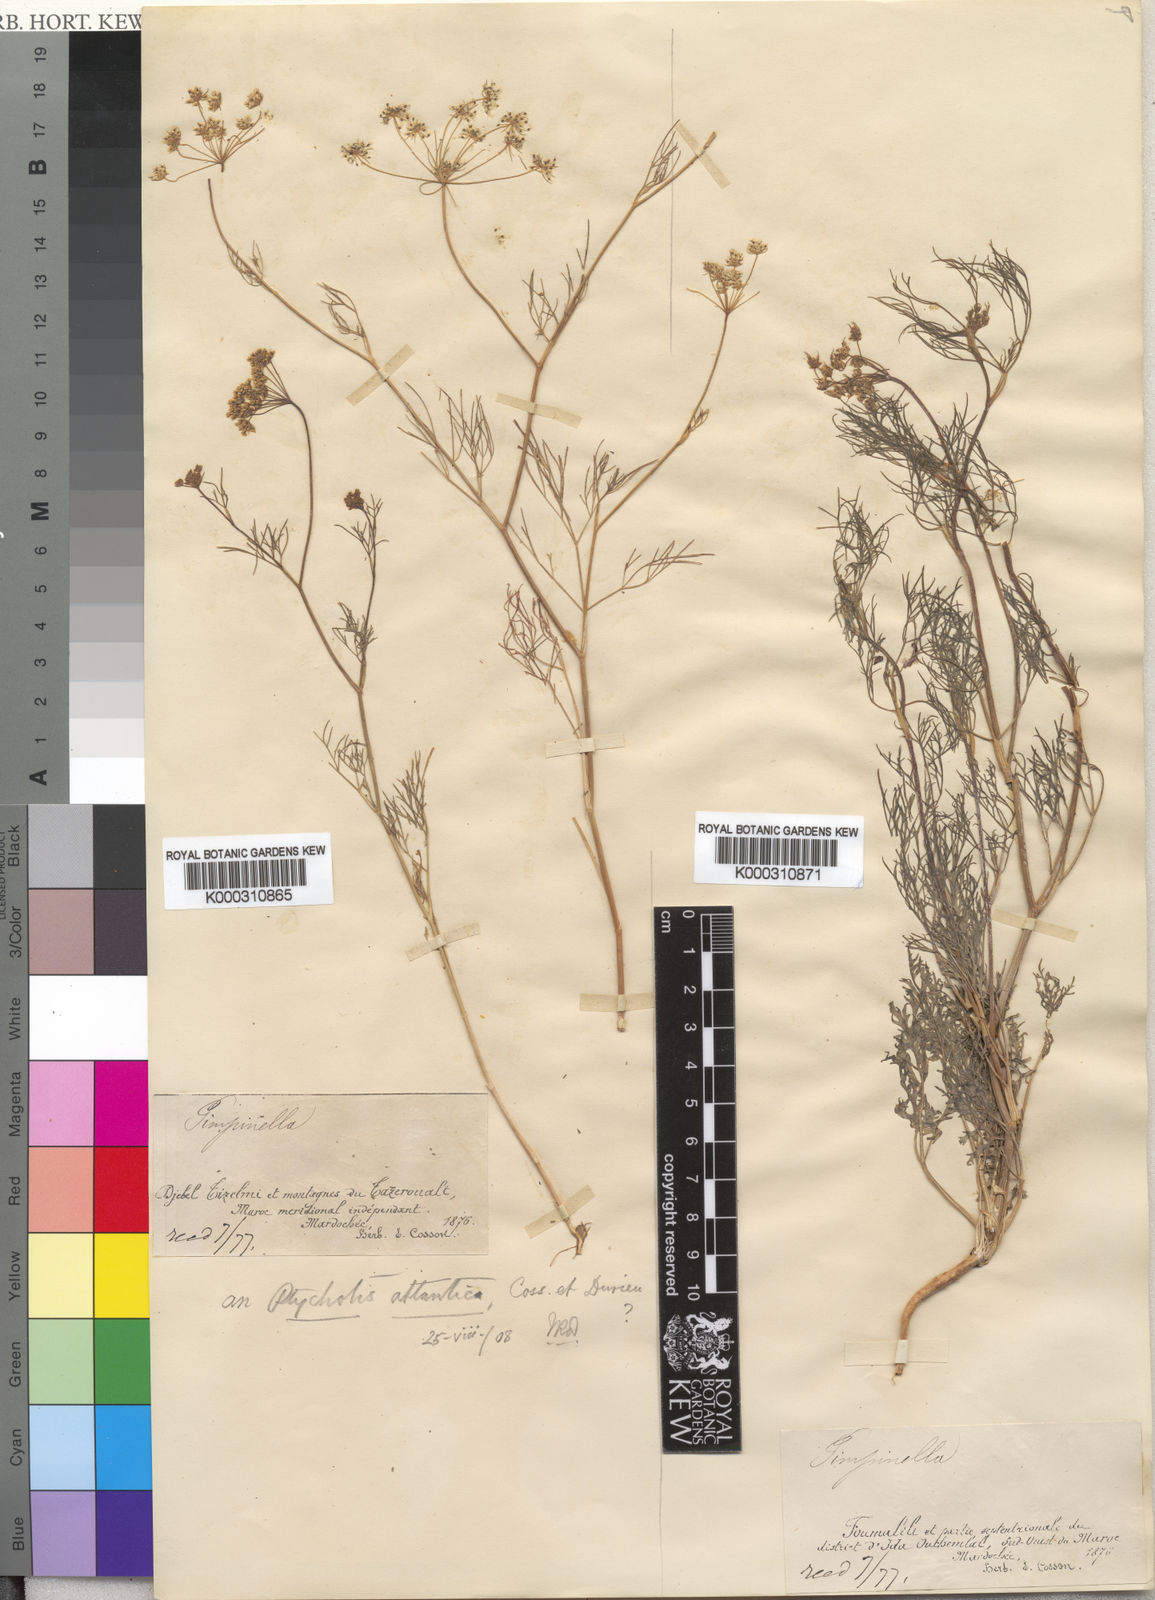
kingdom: Plantae
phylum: Tracheophyta
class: Magnoliopsida
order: Apiales
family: Apiaceae
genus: Ammoides
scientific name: Ammoides atlantica
